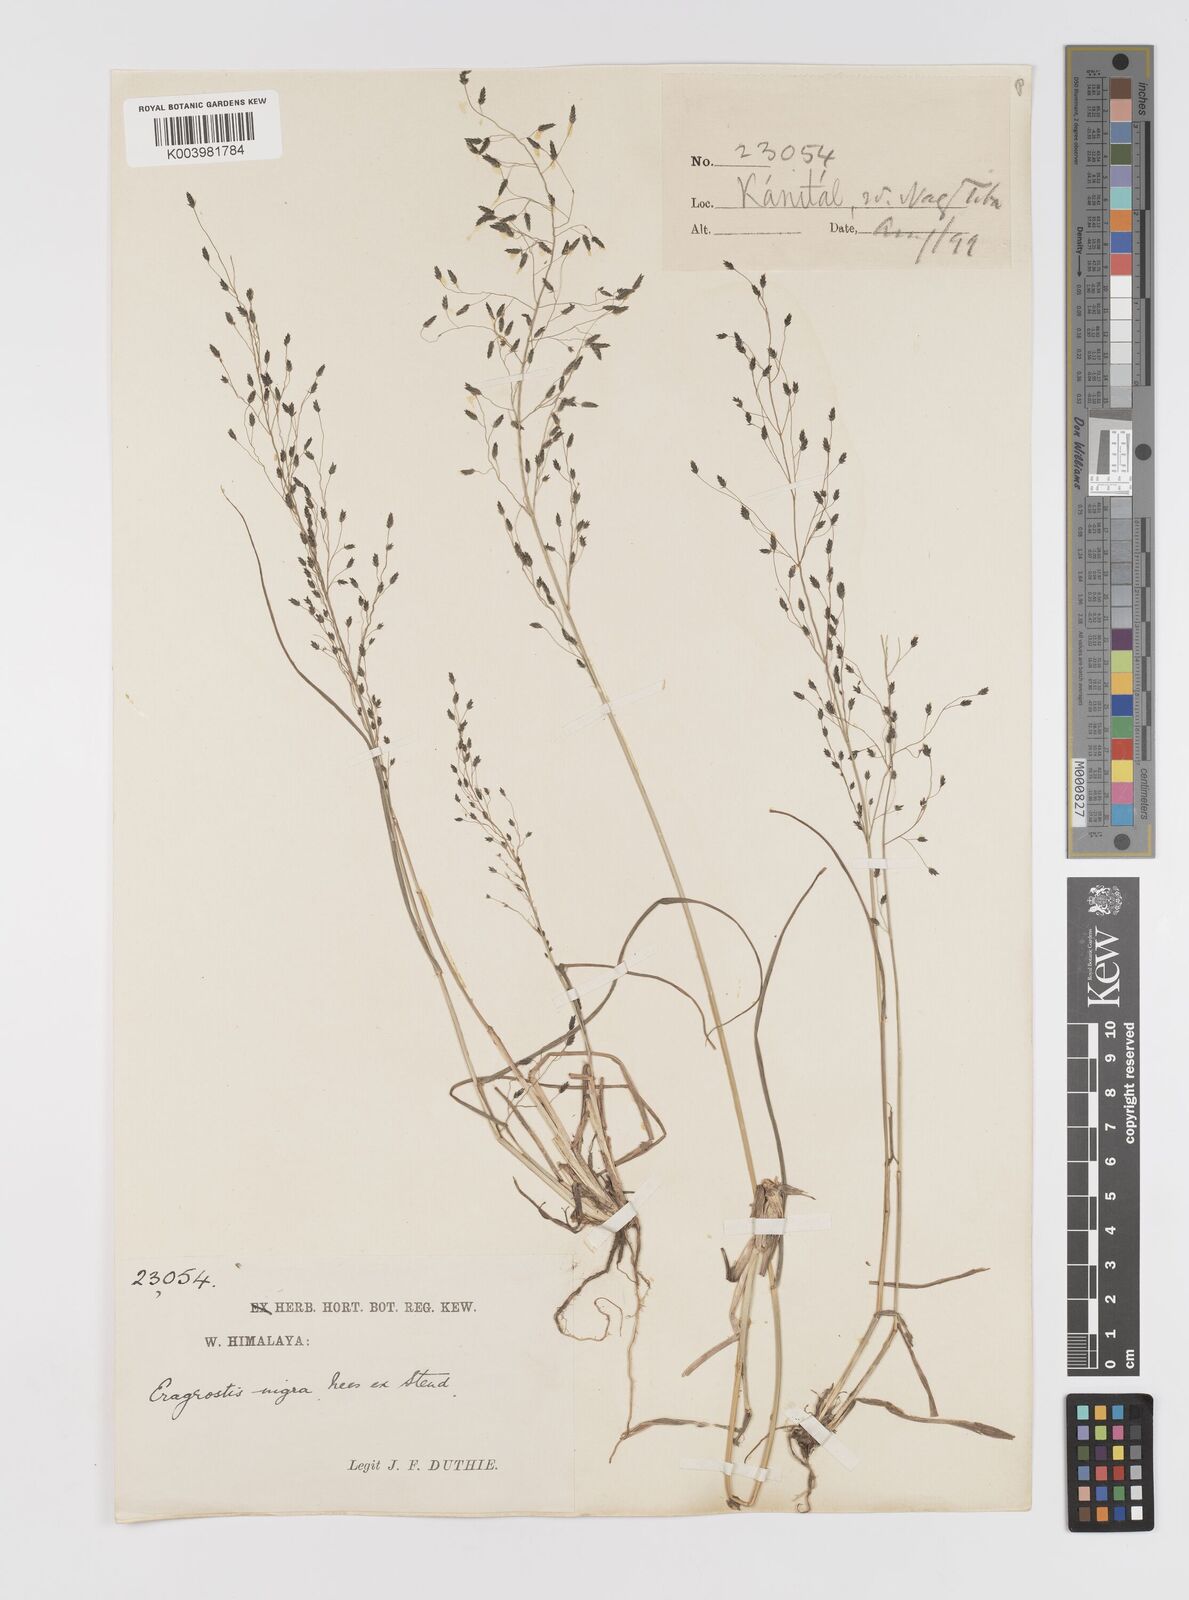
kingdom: Plantae
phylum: Tracheophyta
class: Liliopsida
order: Poales
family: Poaceae
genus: Eragrostis
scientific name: Eragrostis nigra
